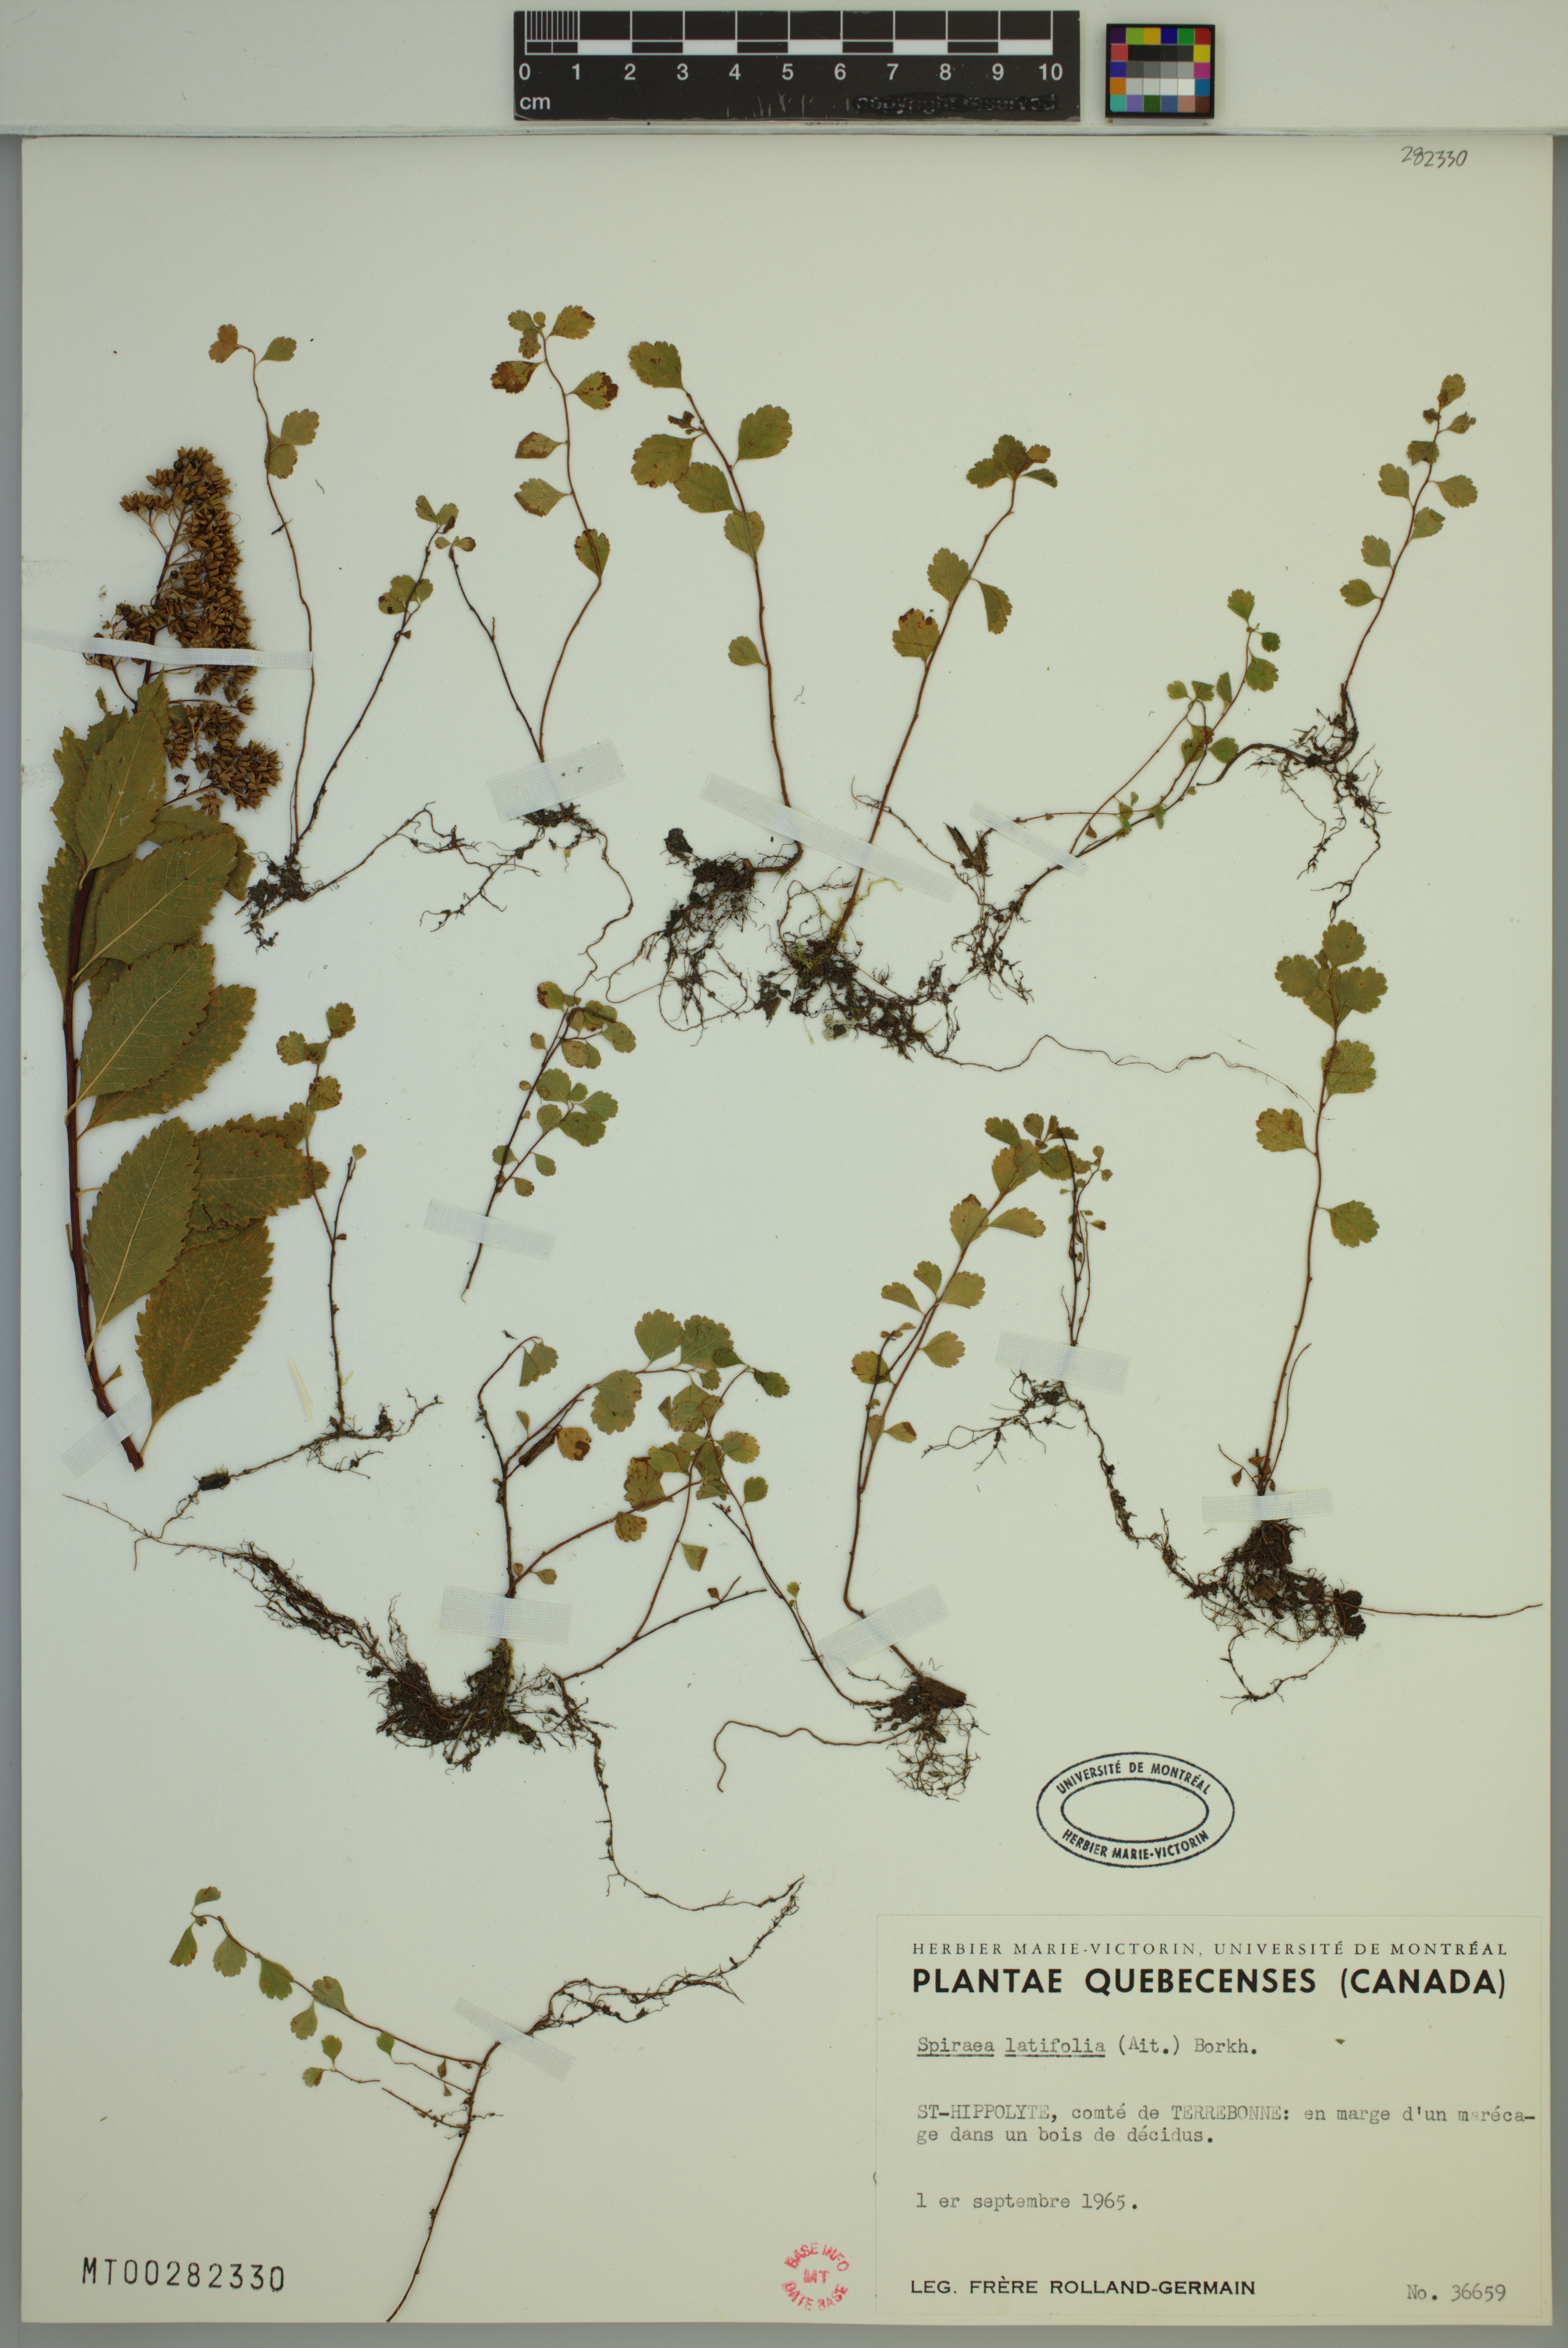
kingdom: Plantae
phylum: Tracheophyta
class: Magnoliopsida
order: Rosales
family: Rosaceae
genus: Spiraea
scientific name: Spiraea alba
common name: Pale bridewort
